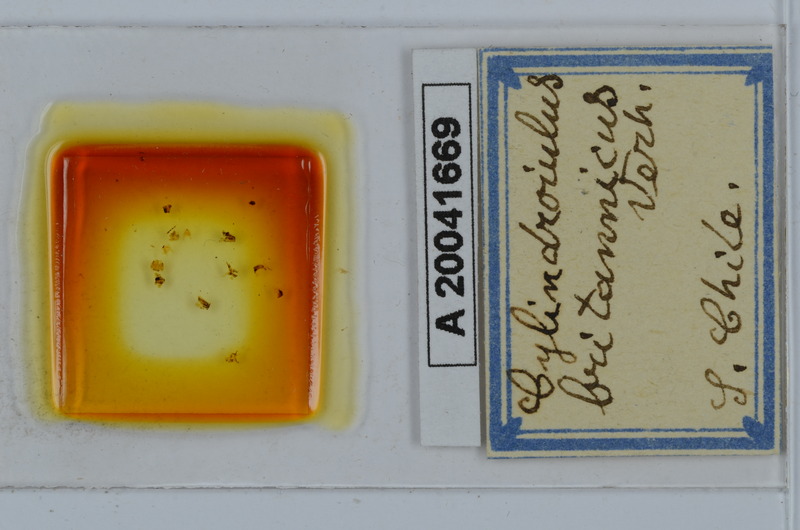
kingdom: Animalia
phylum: Arthropoda
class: Diplopoda
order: Julida
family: Julidae
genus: Cylindroiulus
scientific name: Cylindroiulus britannicus
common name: Lesser glasshouse millipede
